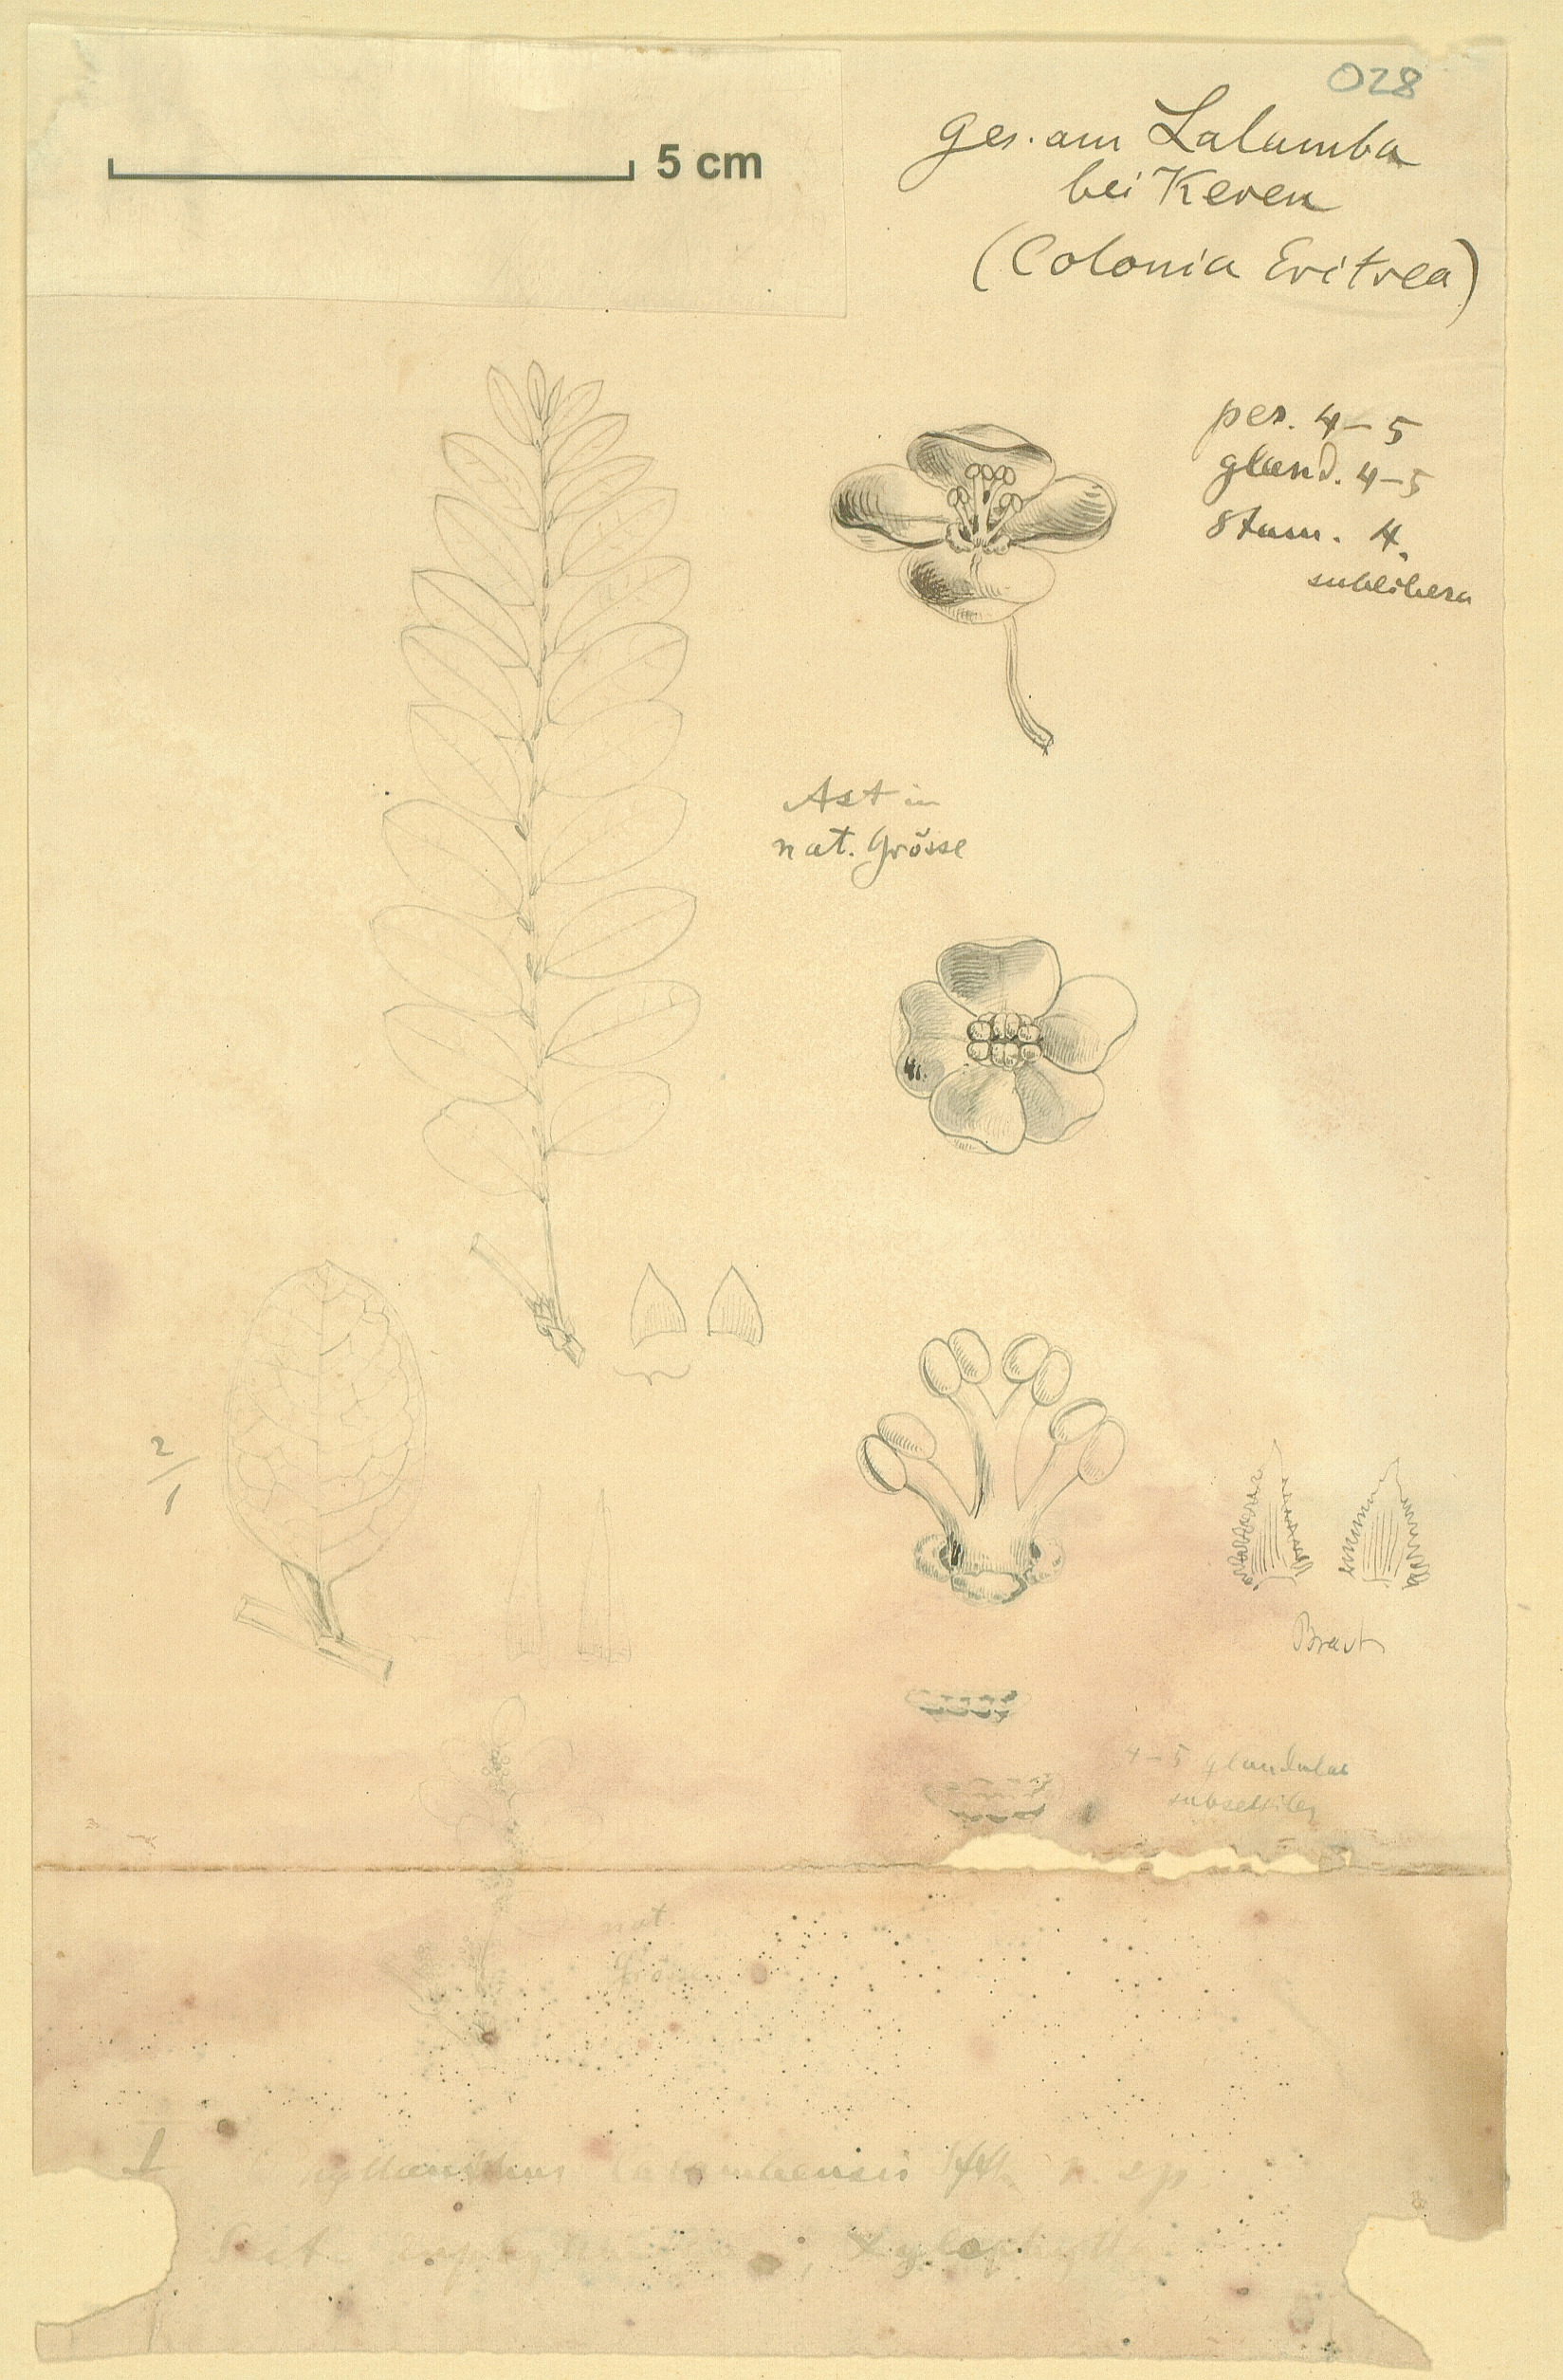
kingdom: Plantae
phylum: Tracheophyta
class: Magnoliopsida
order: Malpighiales
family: Phyllanthaceae
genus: Phyllanthus
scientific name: Phyllanthus ovalifolius
